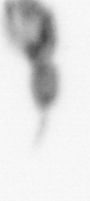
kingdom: Animalia
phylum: Arthropoda
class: Copepoda
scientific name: Copepoda
